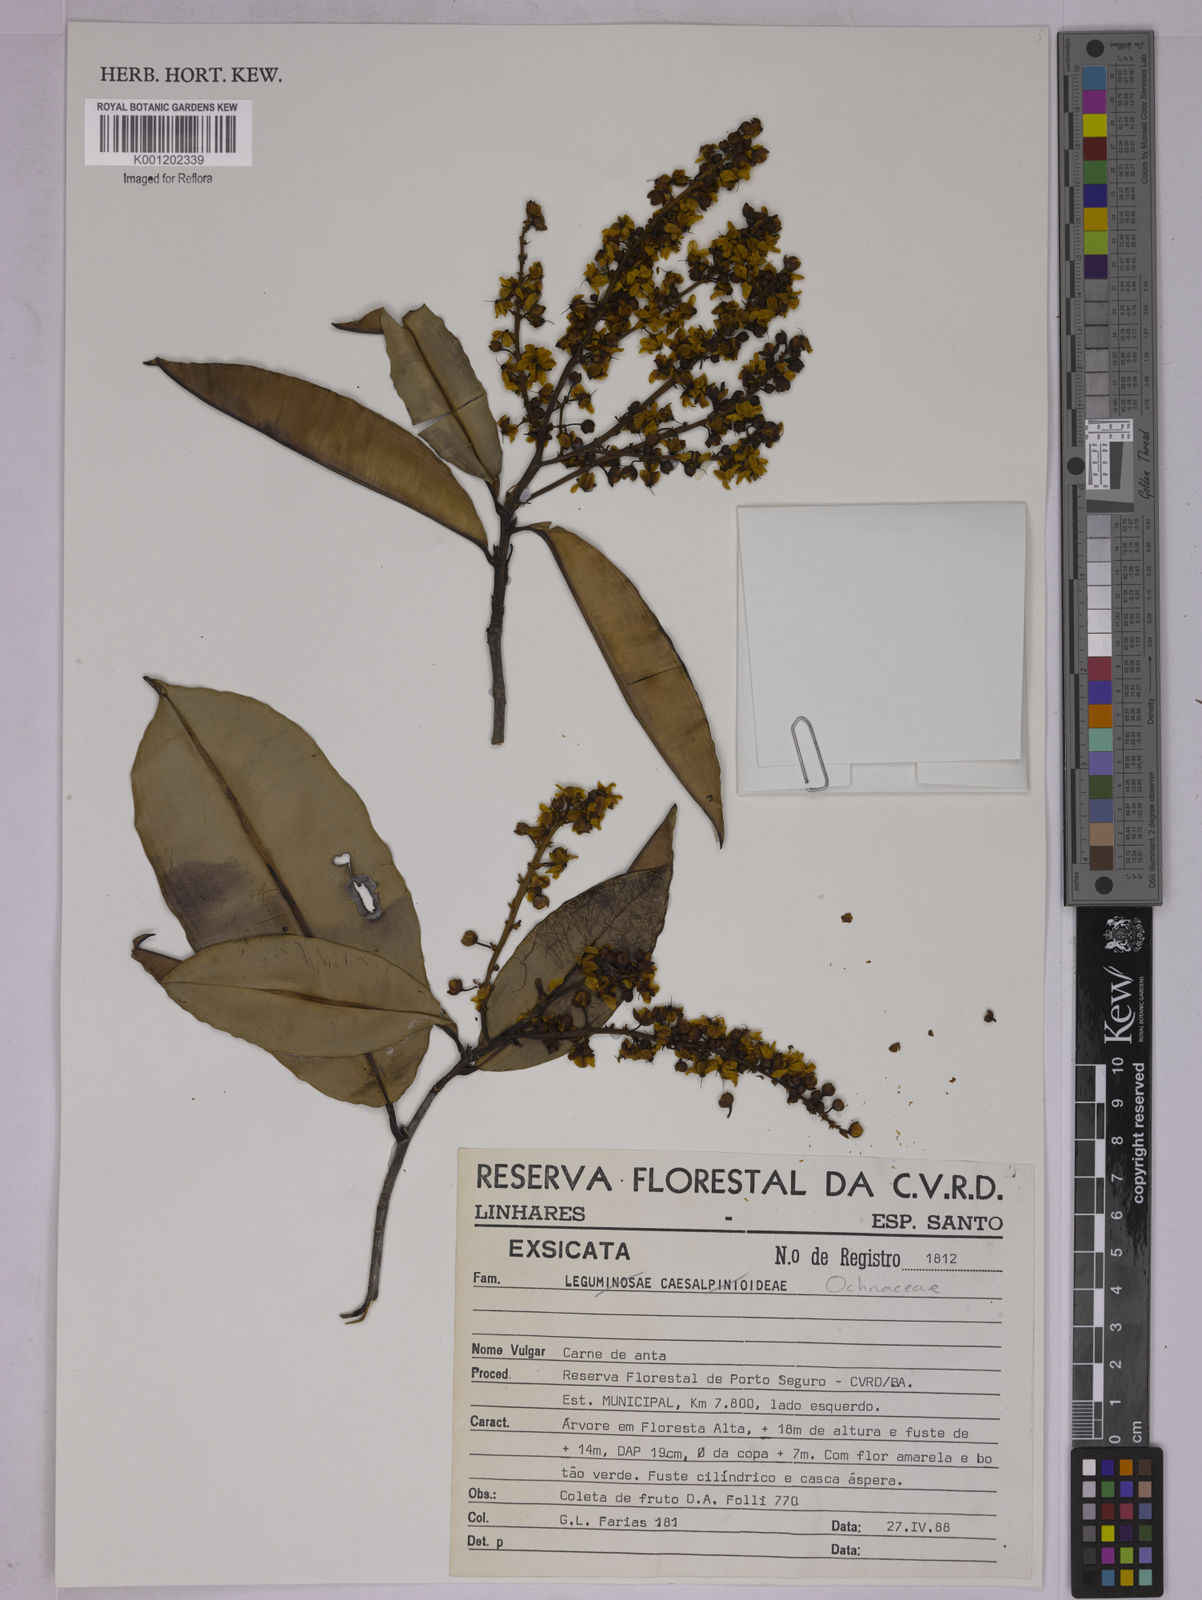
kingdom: Plantae
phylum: Tracheophyta
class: Magnoliopsida
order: Malpighiales
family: Ochnaceae
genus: Elvasia
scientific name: Elvasia
